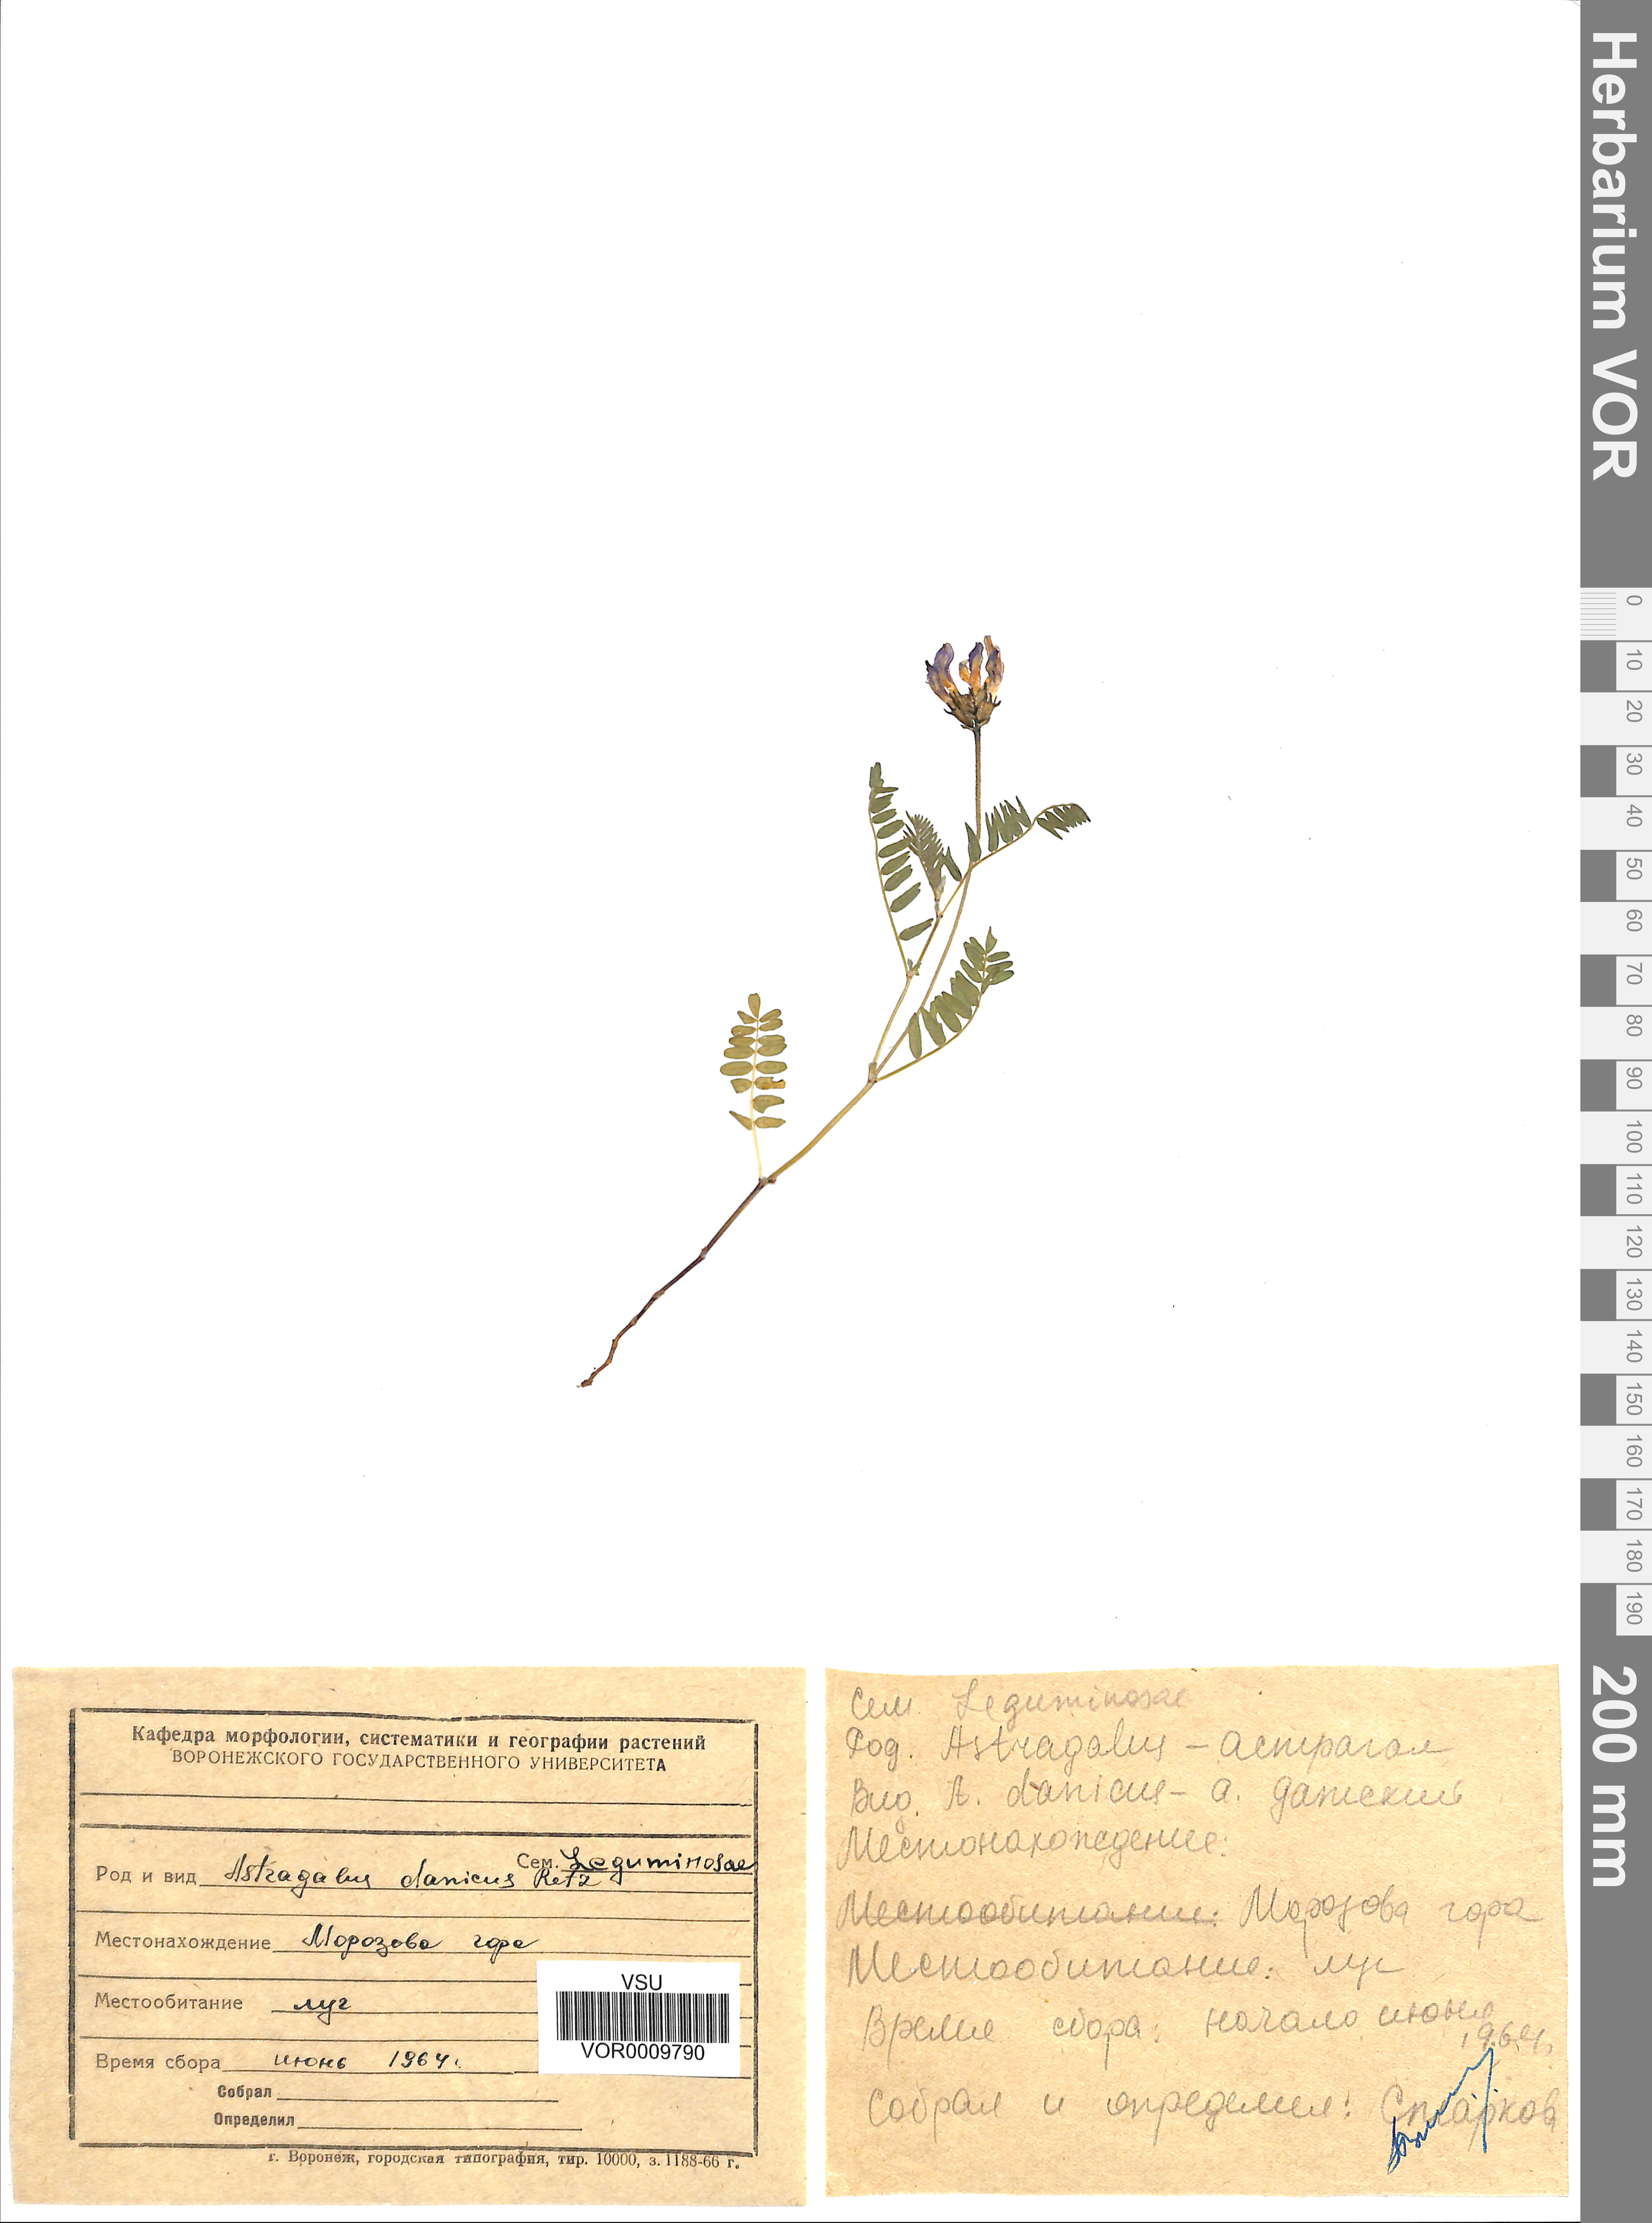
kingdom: Plantae
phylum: Tracheophyta
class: Magnoliopsida
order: Fabales
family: Fabaceae
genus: Astragalus
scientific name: Astragalus danicus
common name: Purple milk-vetch
